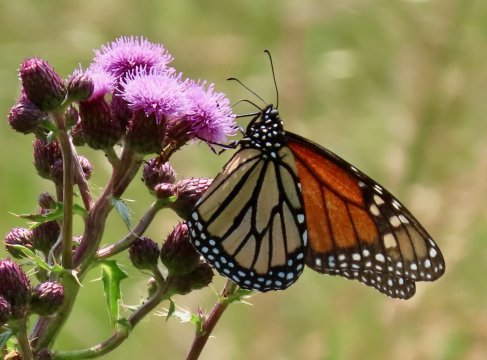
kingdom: Animalia
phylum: Arthropoda
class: Insecta
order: Lepidoptera
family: Nymphalidae
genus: Danaus
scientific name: Danaus plexippus
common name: Monarch
